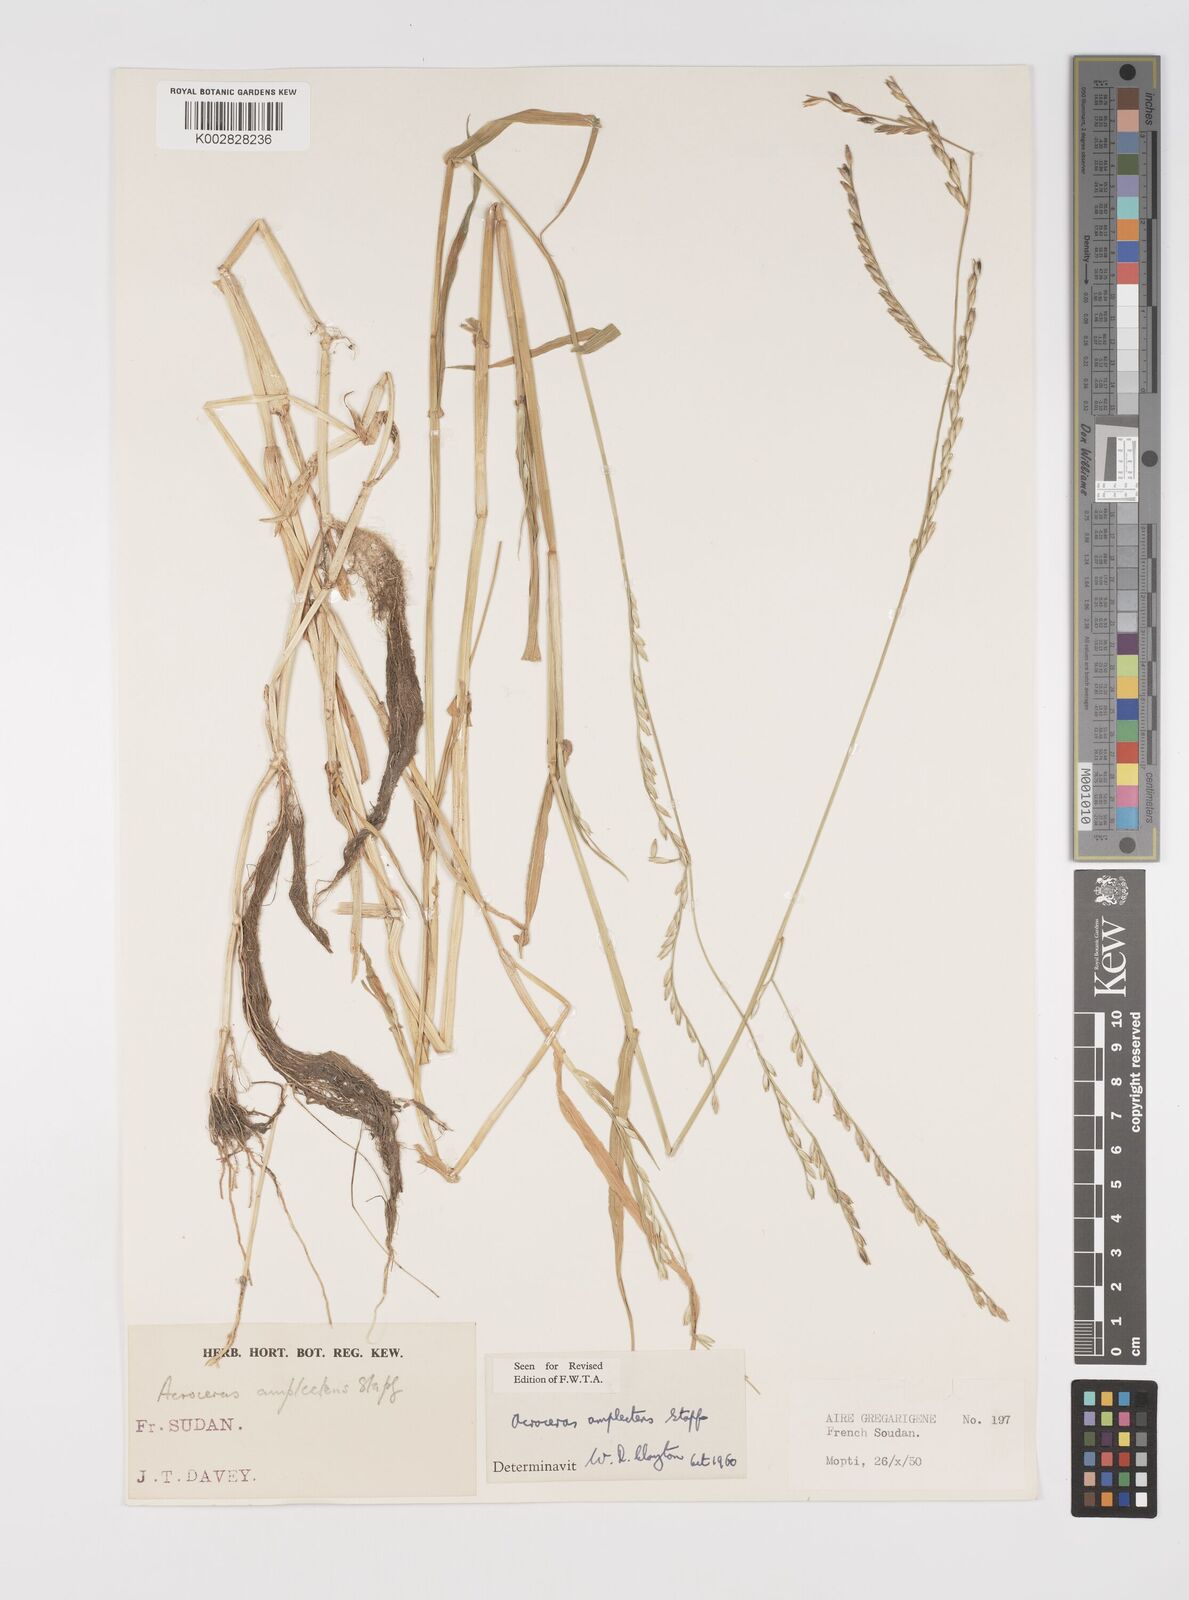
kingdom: Plantae
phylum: Tracheophyta
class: Liliopsida
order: Poales
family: Poaceae
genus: Acroceras
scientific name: Acroceras amplectens
